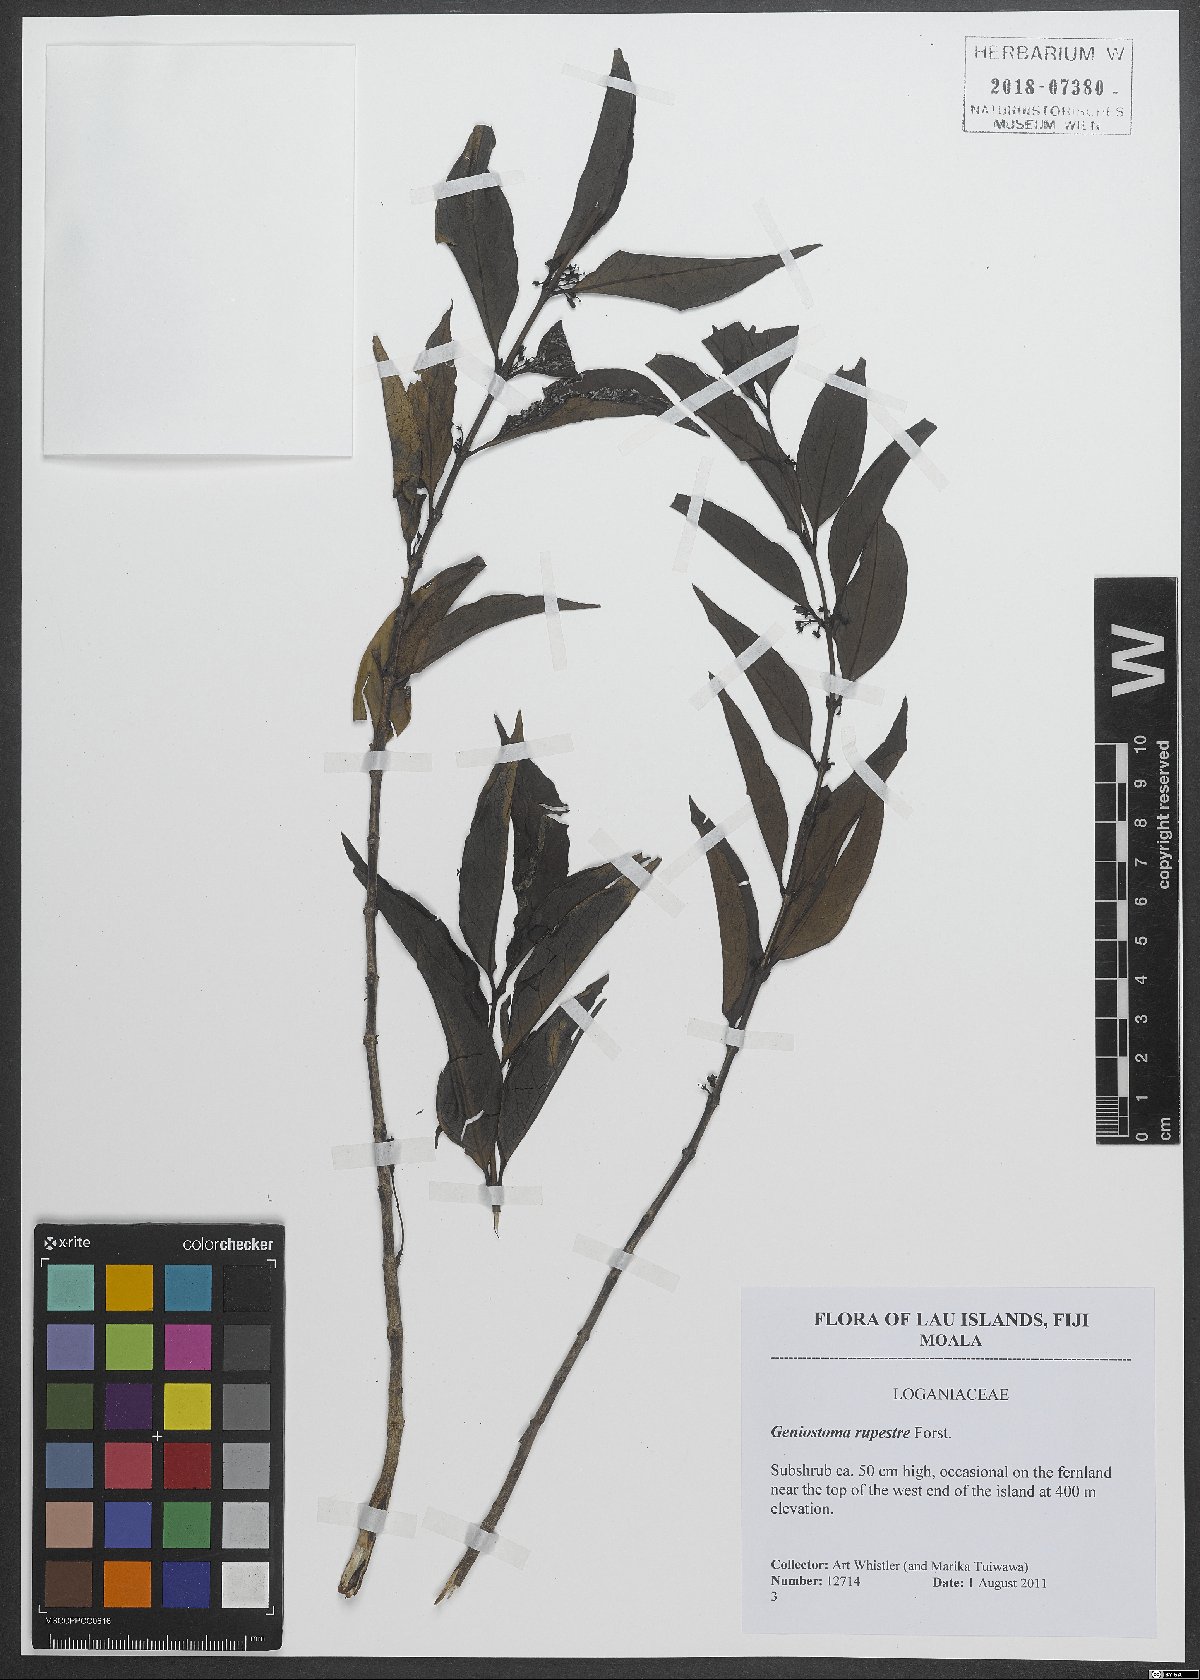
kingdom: Plantae
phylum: Tracheophyta
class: Magnoliopsida
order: Gentianales
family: Loganiaceae
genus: Geniostoma
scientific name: Geniostoma rupestre
